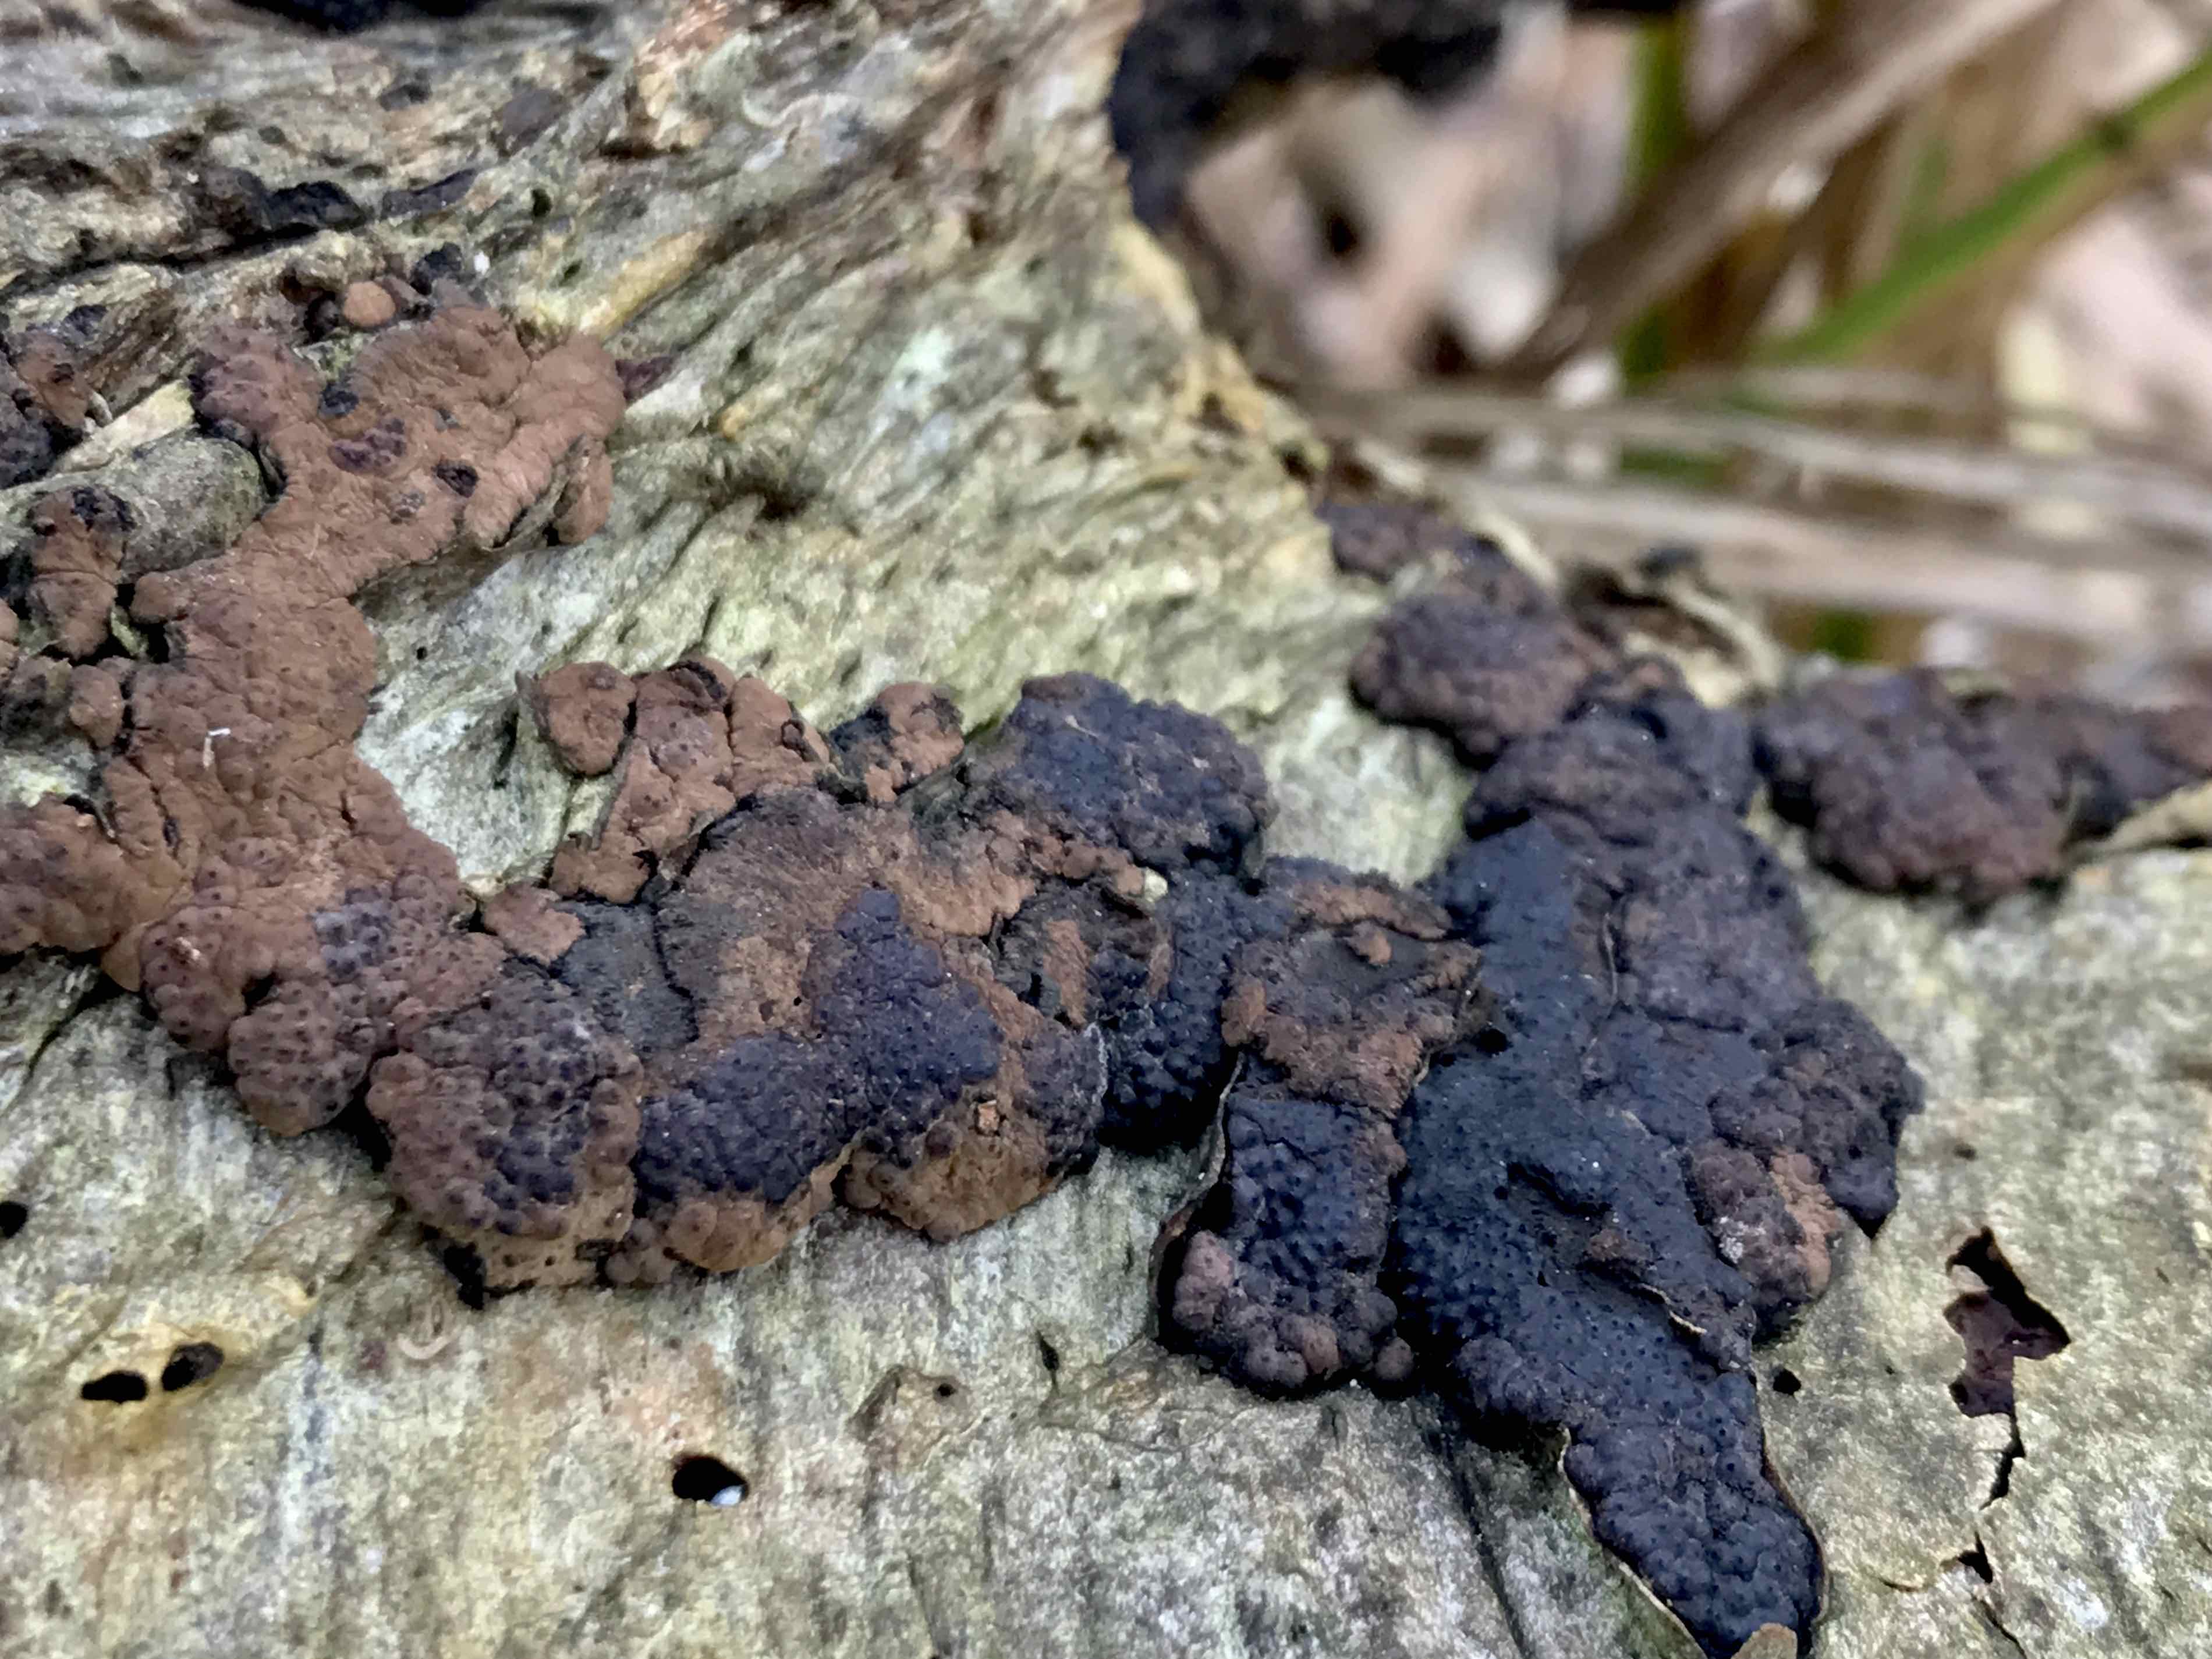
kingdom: Fungi
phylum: Ascomycota
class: Sordariomycetes
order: Xylariales
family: Hypoxylaceae
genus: Jackrogersella
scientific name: Jackrogersella minutella
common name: ege-kulbær
